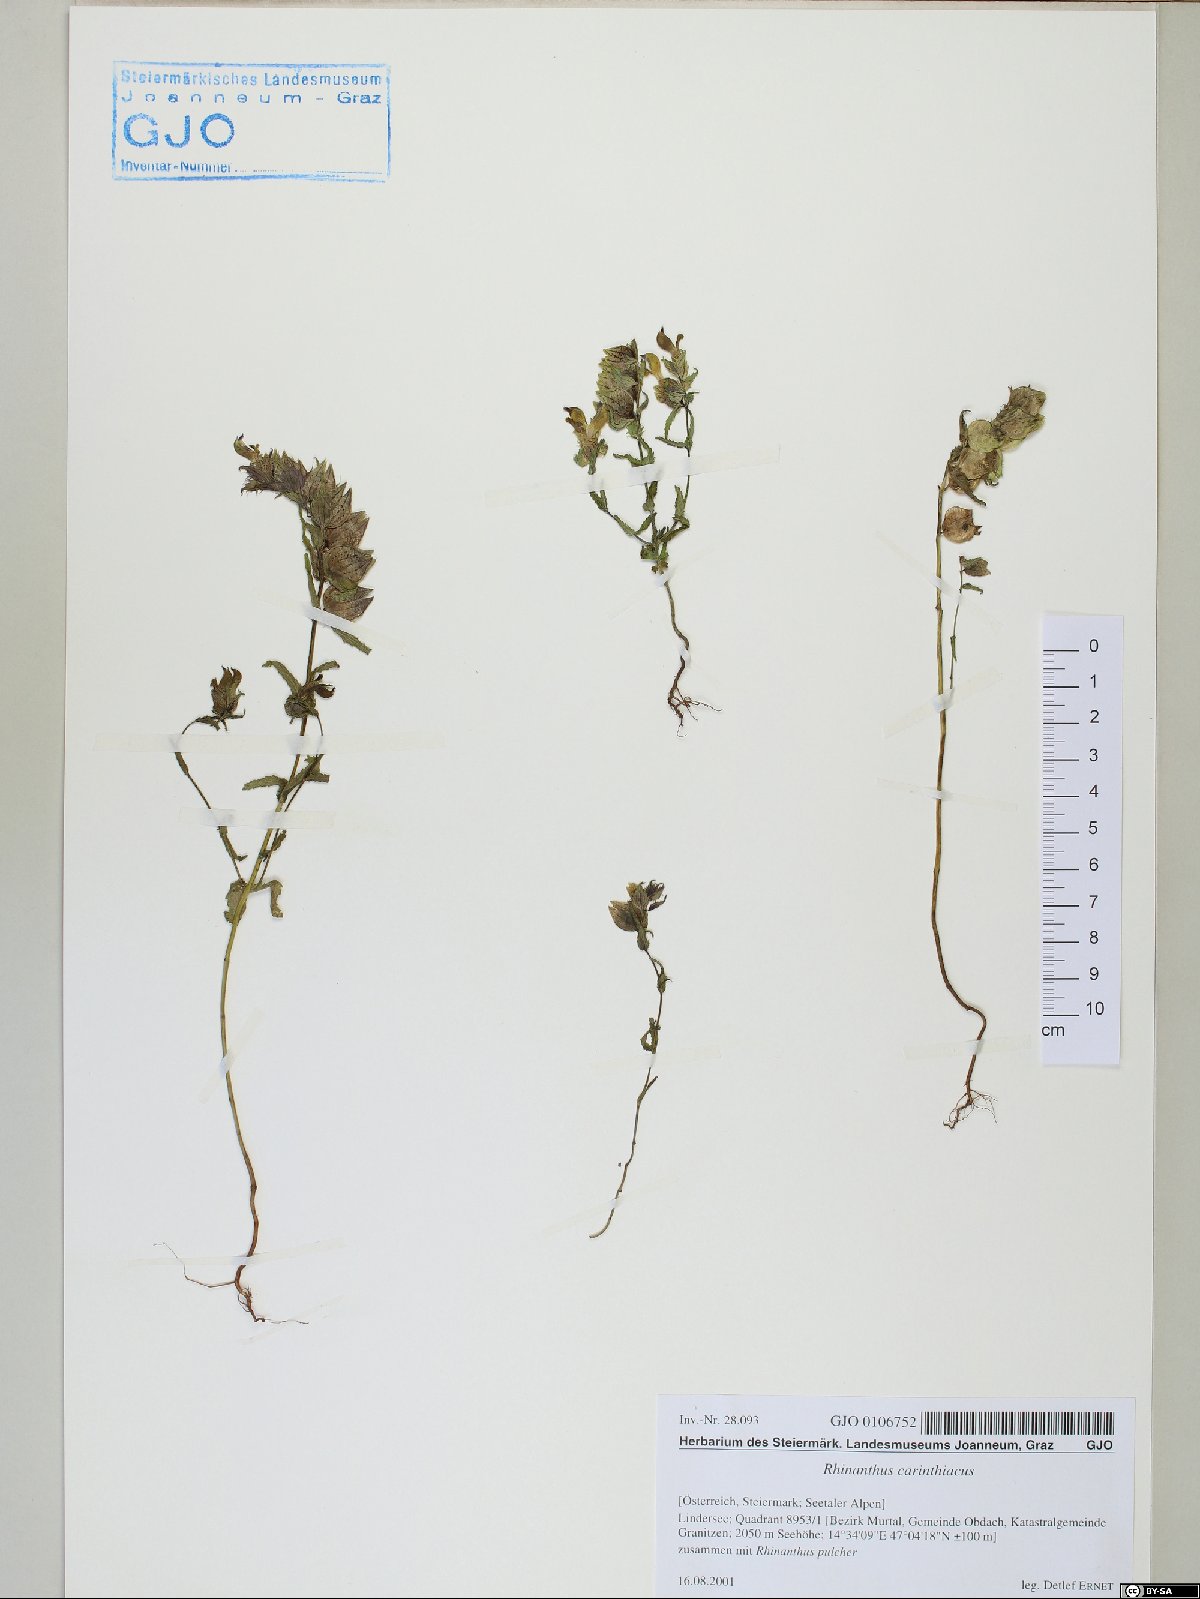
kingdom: Plantae
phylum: Tracheophyta
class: Magnoliopsida
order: Lamiales
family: Orobanchaceae
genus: Rhinanthus
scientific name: Rhinanthus carinthiacus
